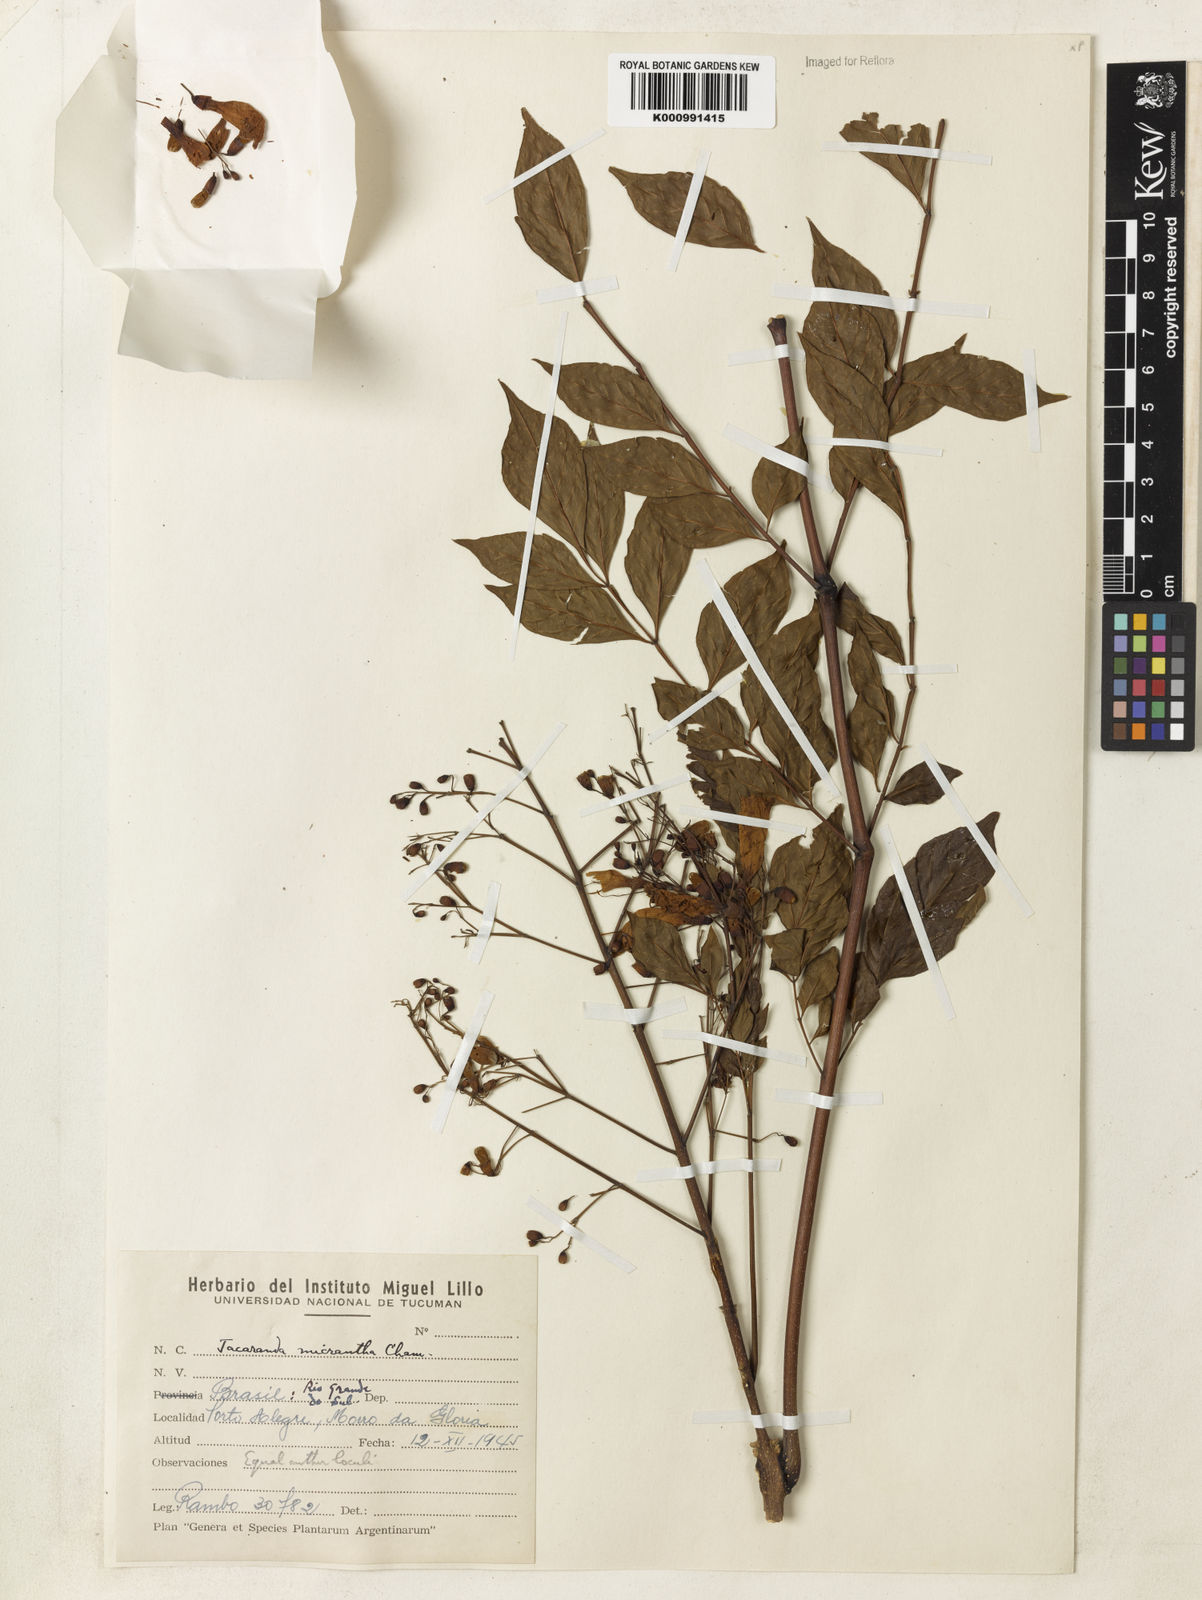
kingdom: Plantae
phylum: Tracheophyta
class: Magnoliopsida
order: Lamiales
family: Bignoniaceae
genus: Jacaranda
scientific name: Jacaranda micrantha
